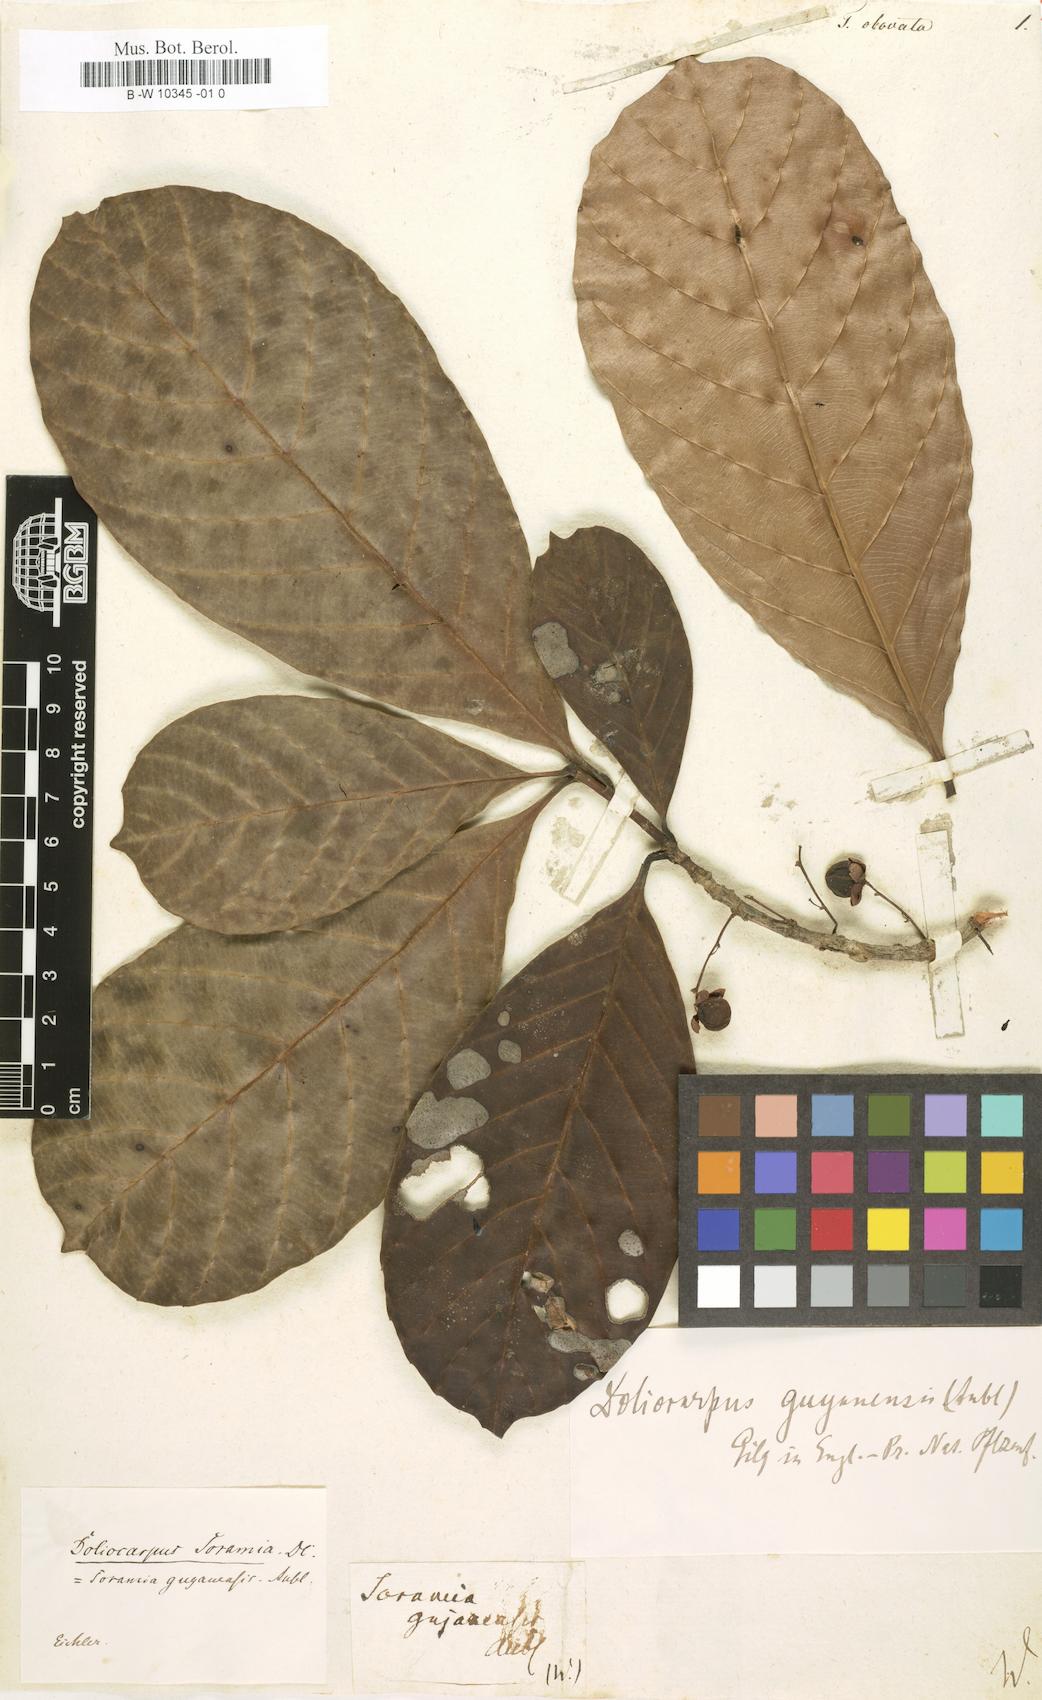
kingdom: Plantae
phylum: Tracheophyta
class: Magnoliopsida
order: Dilleniales
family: Dilleniaceae
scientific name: Dilleniaceae
